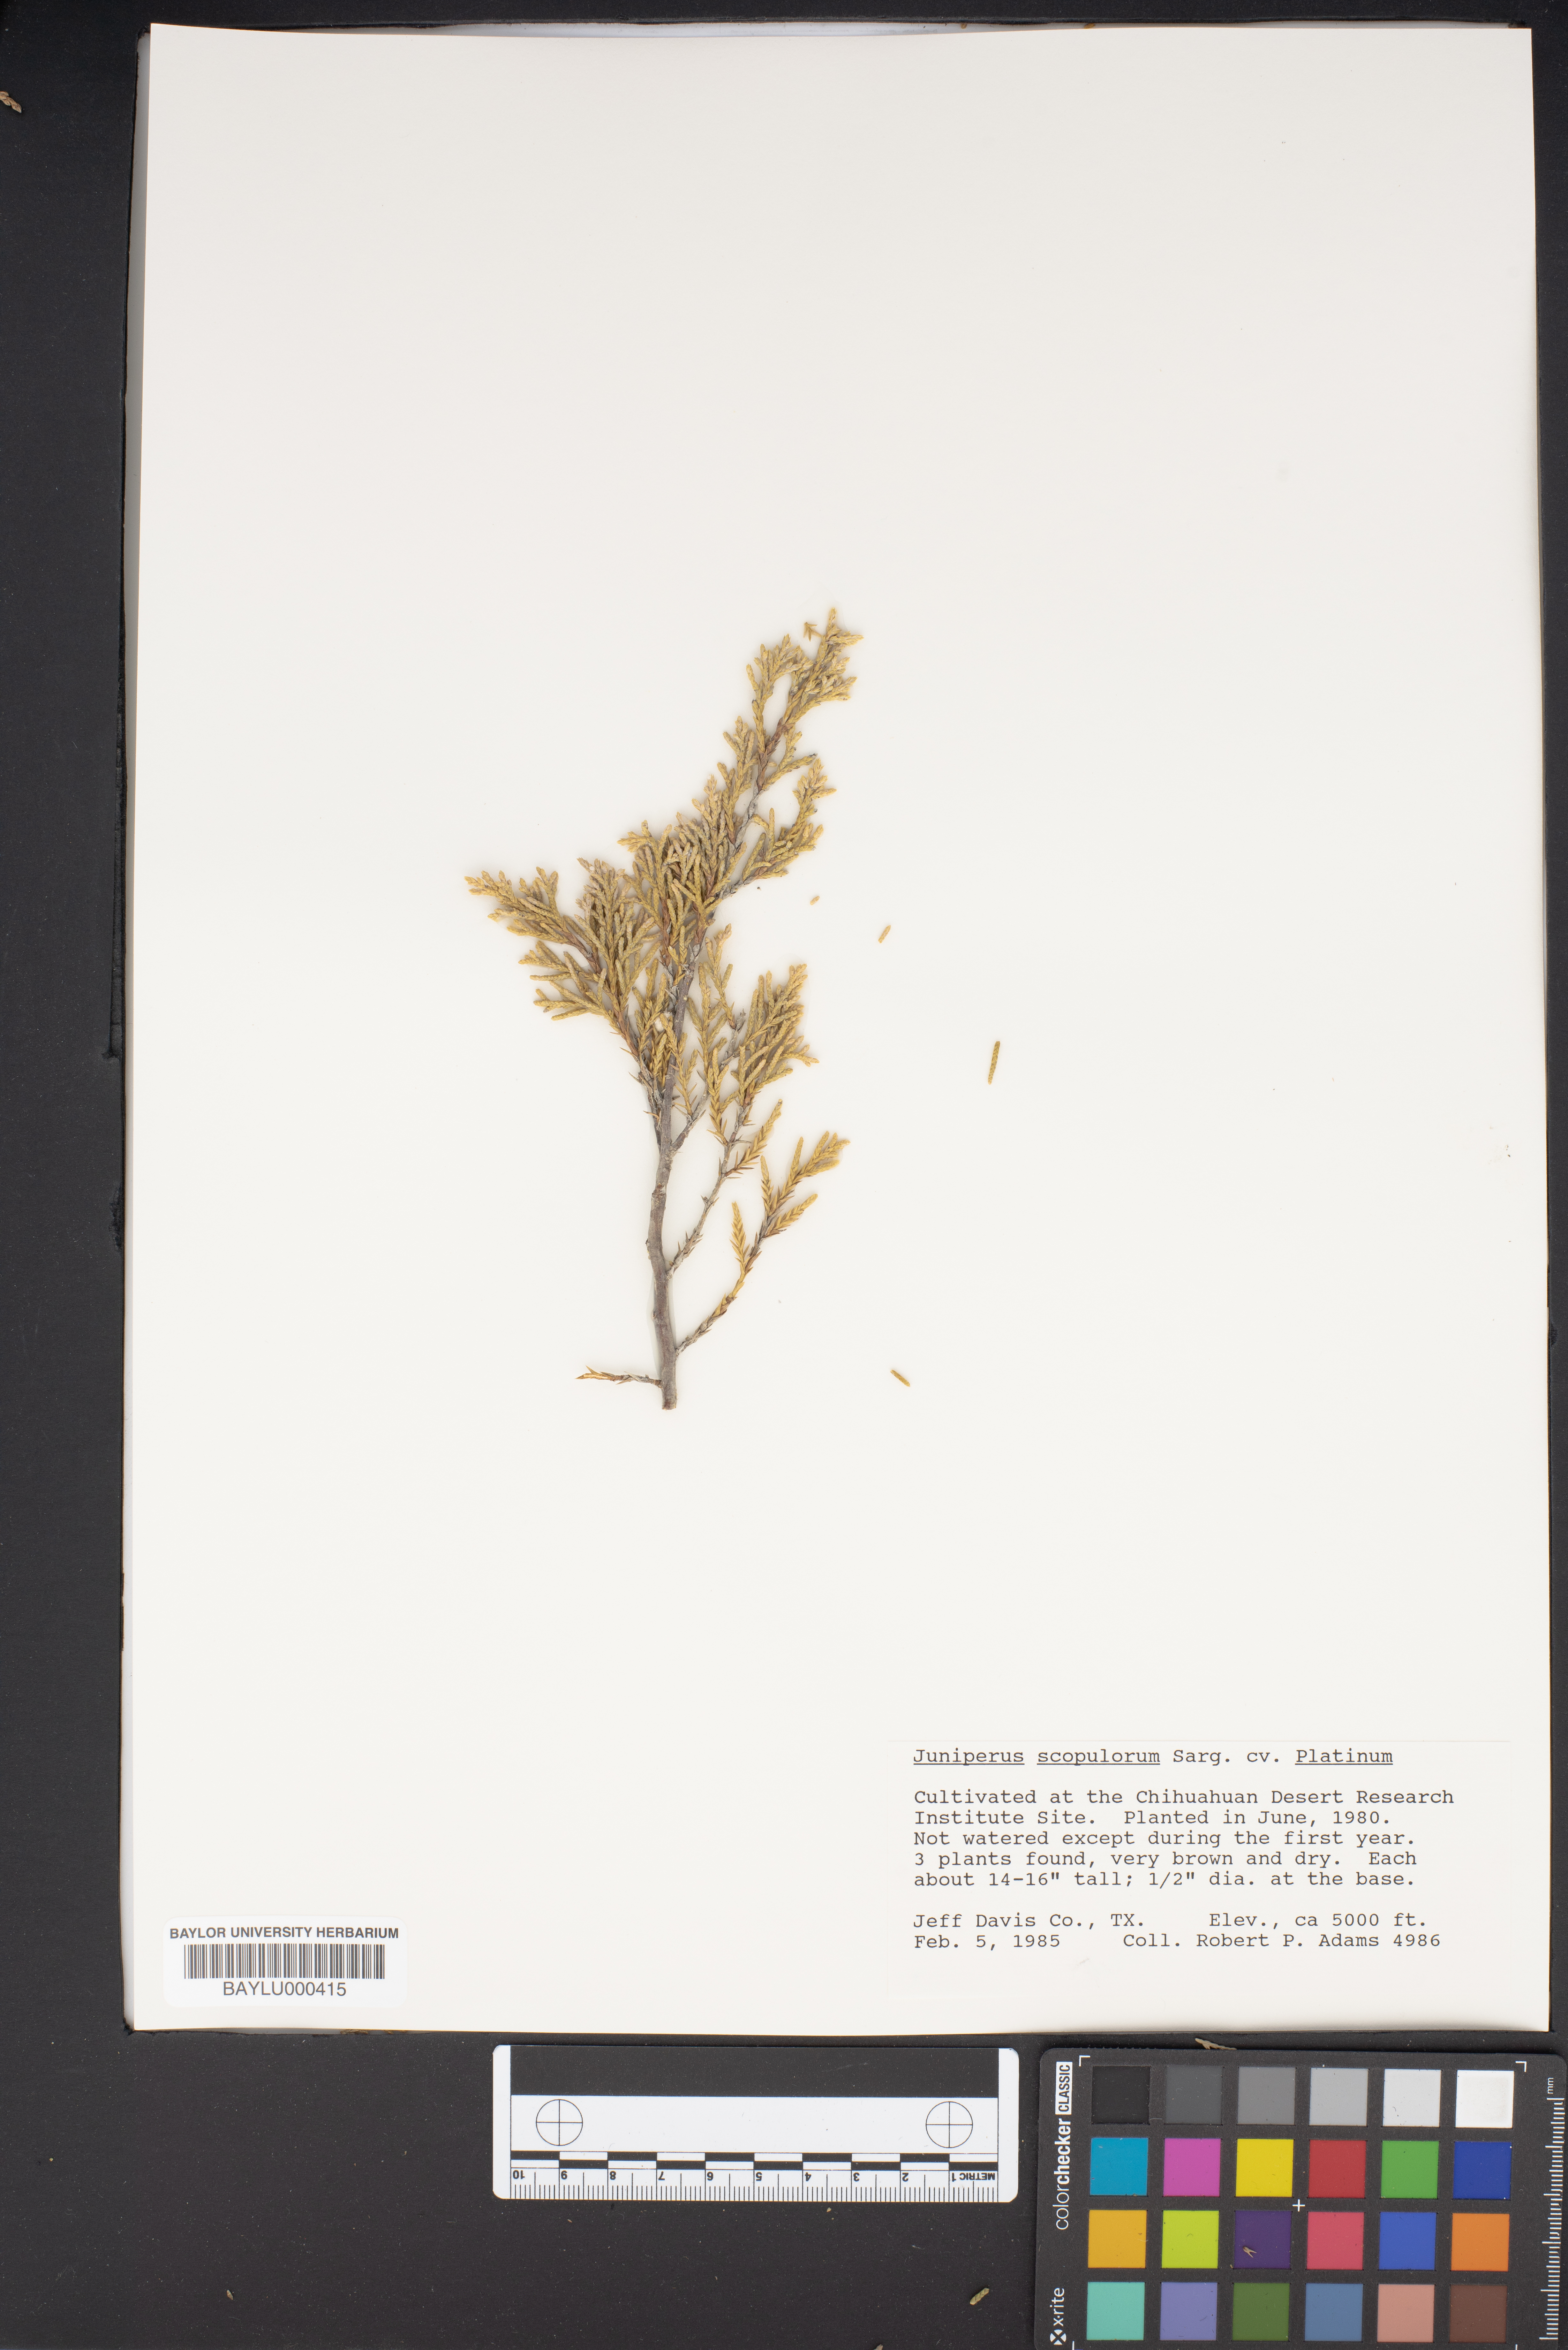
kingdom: Plantae
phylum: Tracheophyta
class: Pinopsida
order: Pinales
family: Cupressaceae
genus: Juniperus
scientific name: Juniperus scopulorum
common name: Rocky mountain juniper
